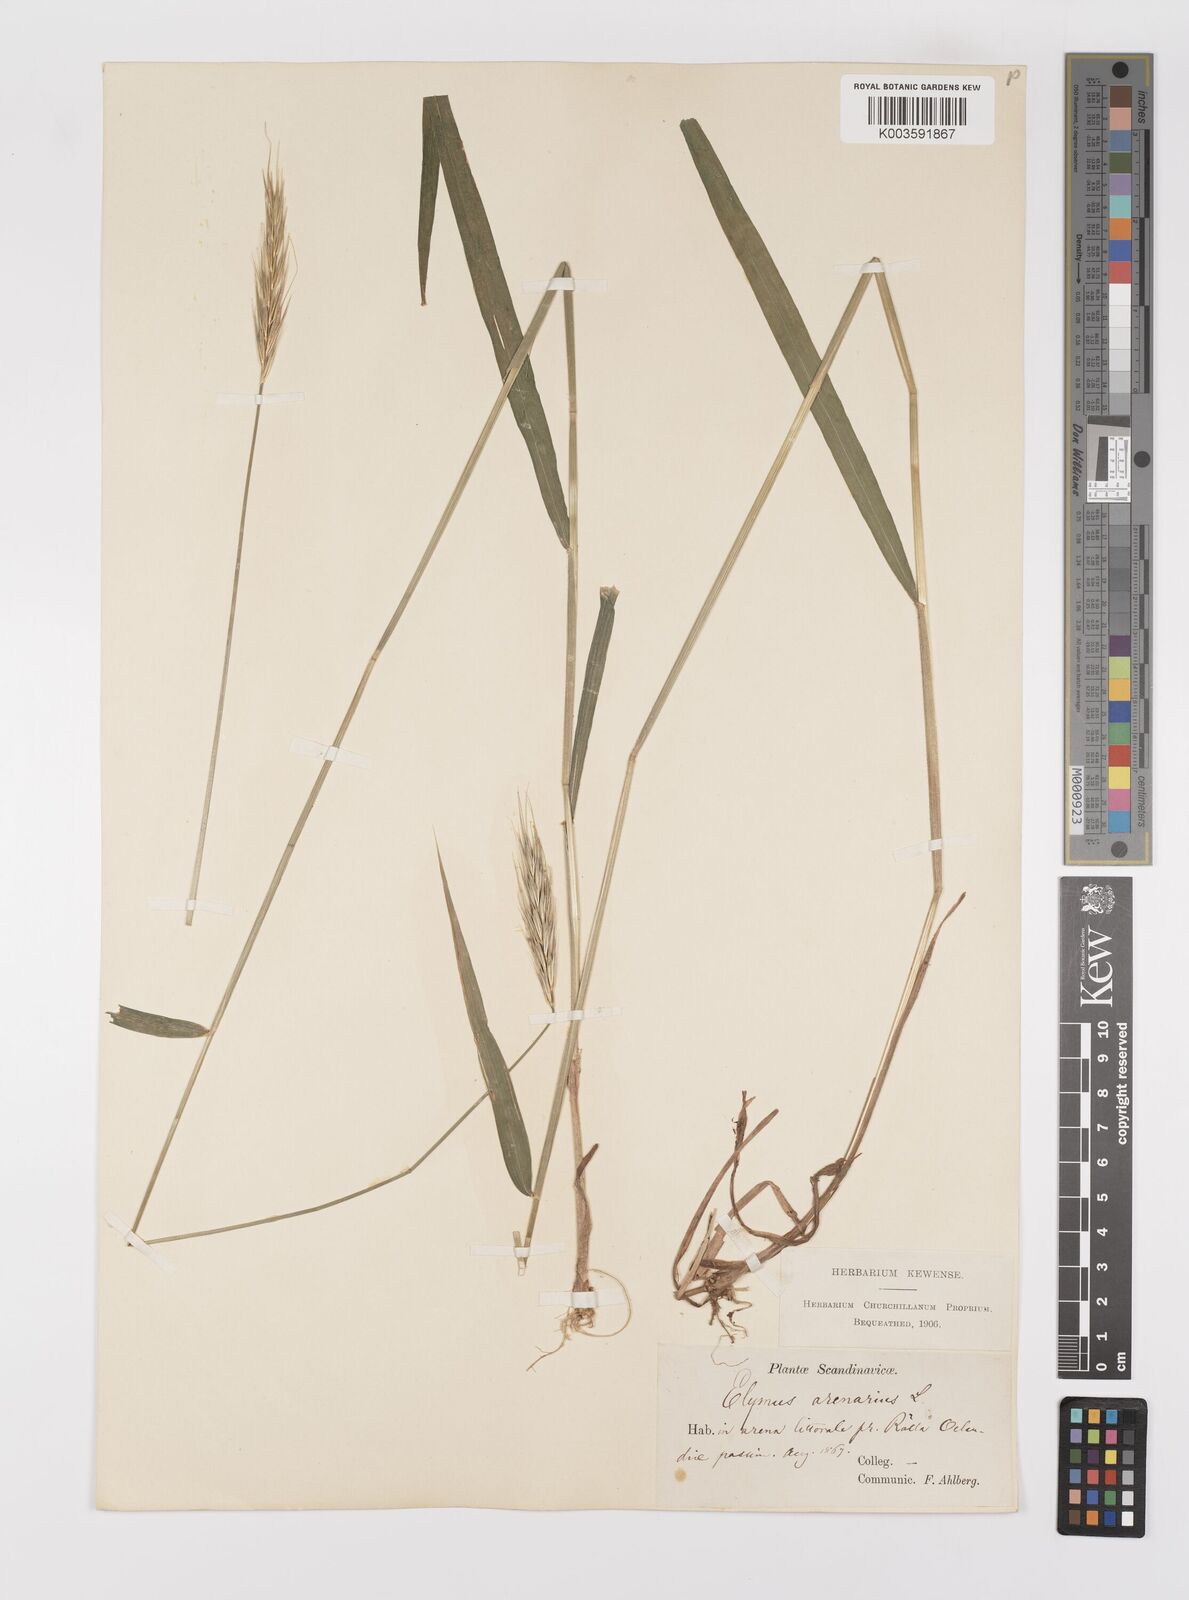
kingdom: Plantae
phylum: Tracheophyta
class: Liliopsida
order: Poales
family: Poaceae
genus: Hordelymus
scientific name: Hordelymus europaeus
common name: Wood-barley
